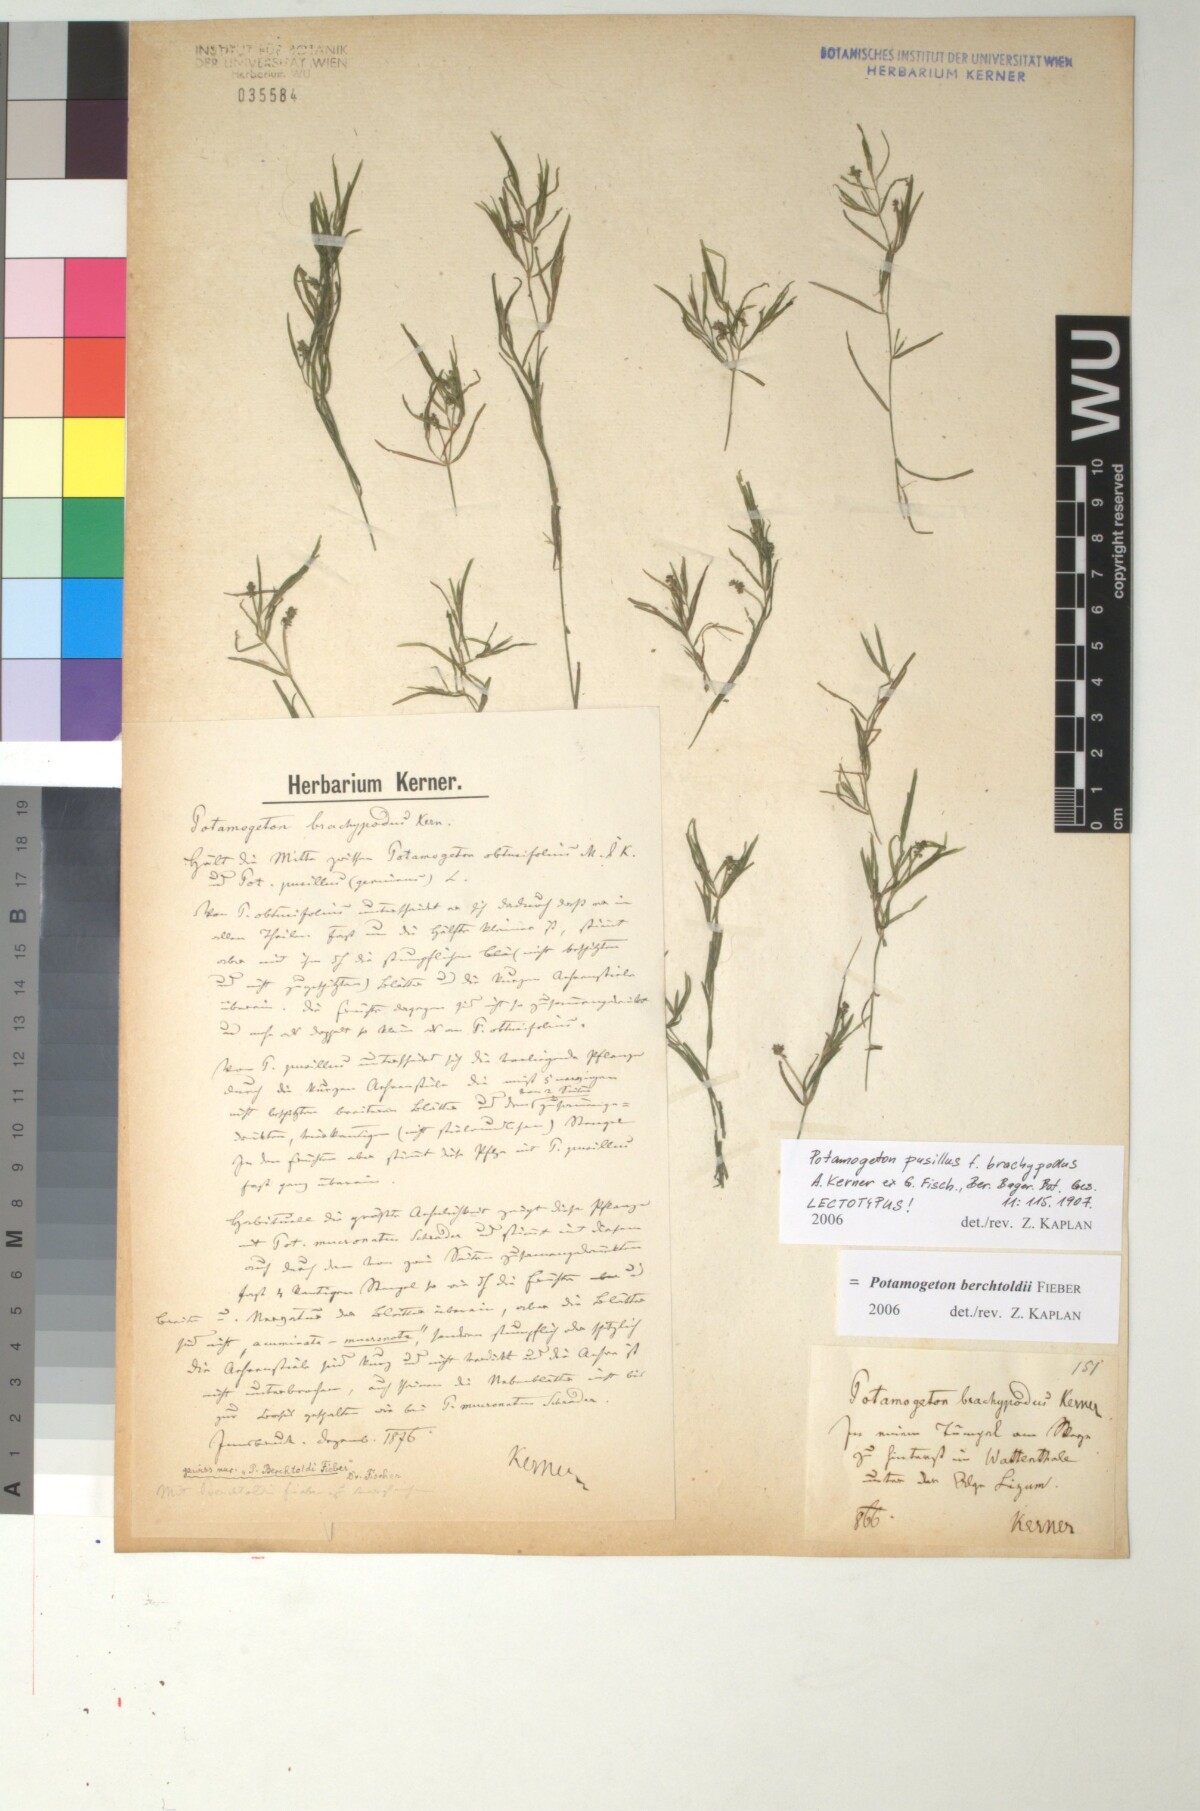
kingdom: Plantae
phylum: Tracheophyta
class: Liliopsida
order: Alismatales
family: Potamogetonaceae
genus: Potamogeton
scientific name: Potamogeton pusillus
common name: Lesser pondweed
